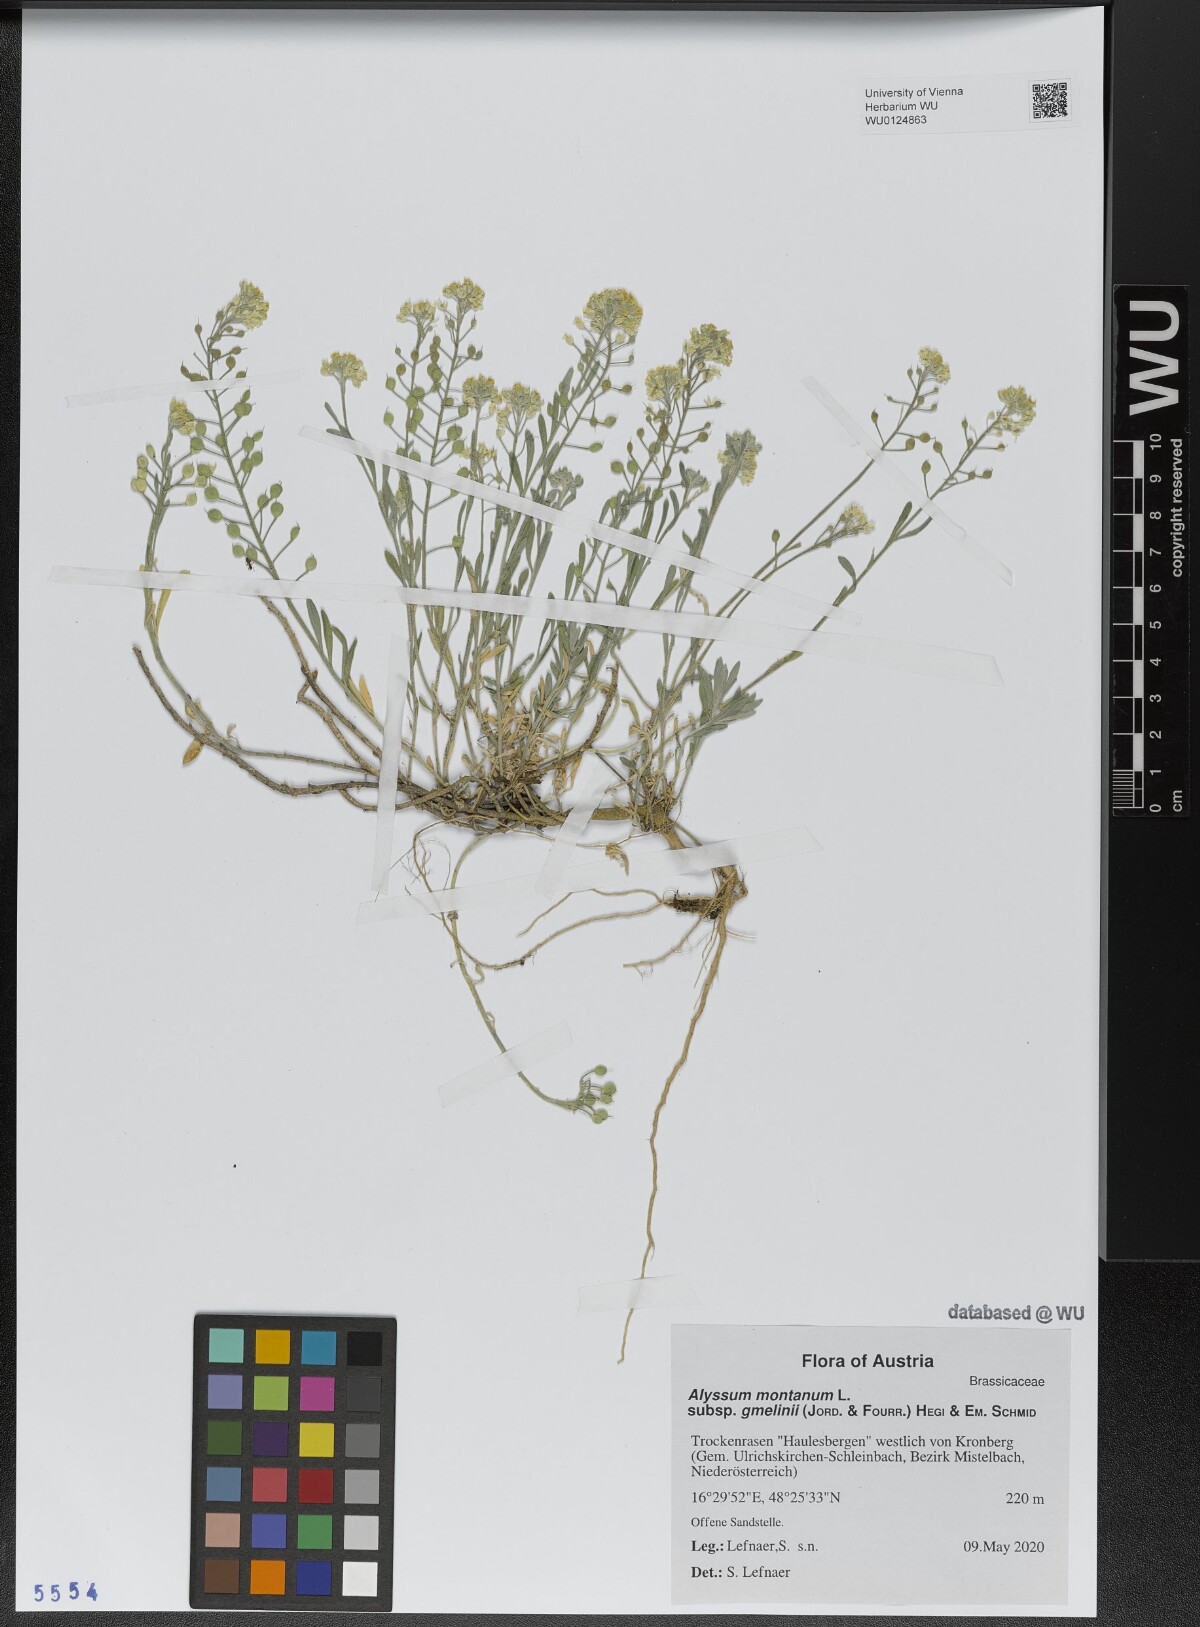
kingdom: Plantae
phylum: Tracheophyta
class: Magnoliopsida
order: Brassicales
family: Brassicaceae
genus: Alyssum
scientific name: Alyssum gmelinii
